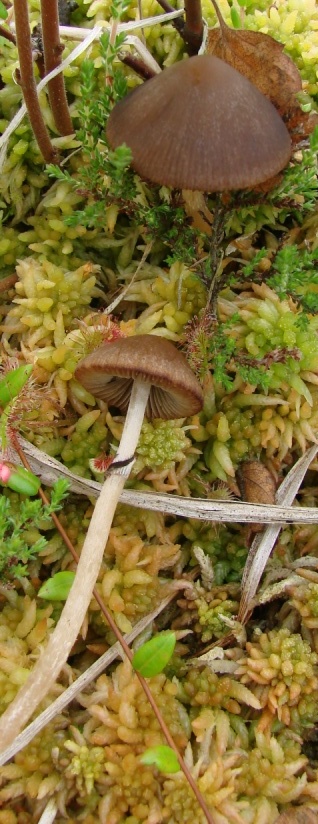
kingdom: Fungi
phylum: Basidiomycota
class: Agaricomycetes
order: Agaricales
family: Psathyrellaceae
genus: Psathyrella
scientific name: Psathyrella sphagnicola
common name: tørve-mørkhat
